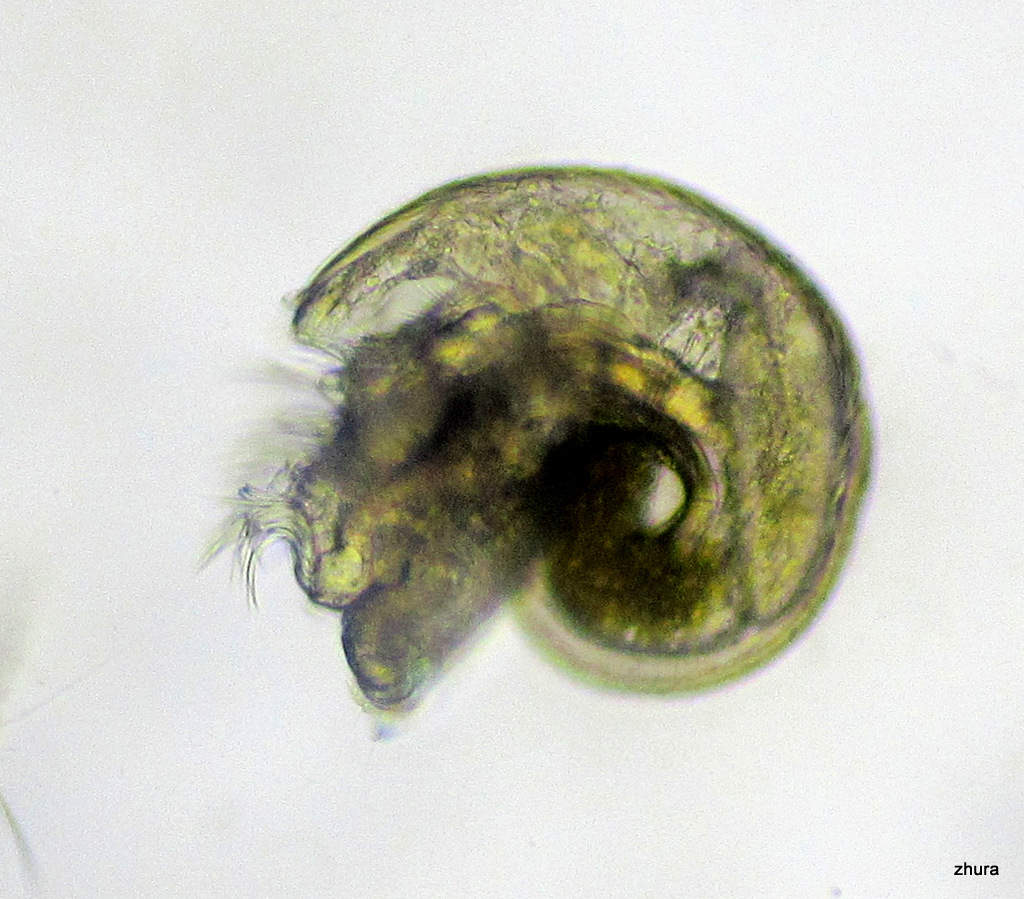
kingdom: Animalia
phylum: Mollusca
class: Gastropoda
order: Littorinimorpha
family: Littorinidae
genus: Littorina
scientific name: Littorina
